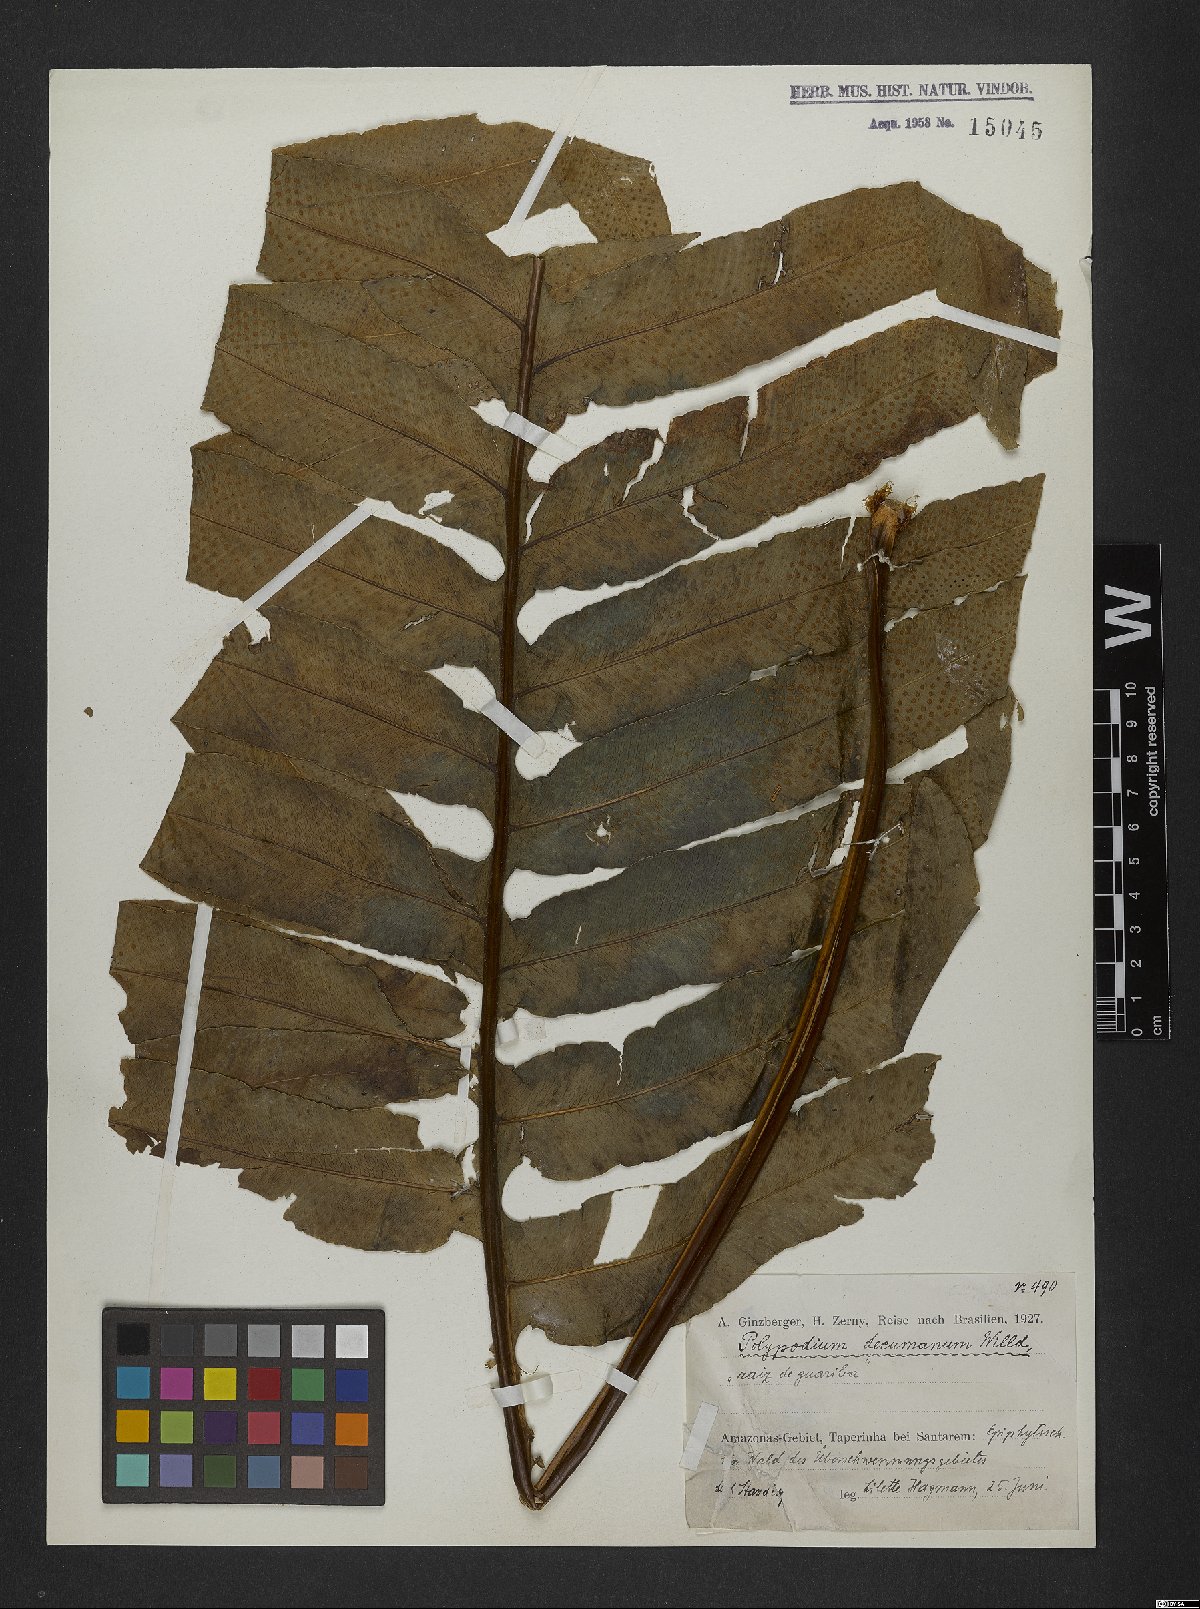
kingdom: Plantae
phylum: Tracheophyta
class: Polypodiopsida
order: Polypodiales
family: Polypodiaceae
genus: Phlebodium
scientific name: Phlebodium decumanum
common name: Golden polypod
